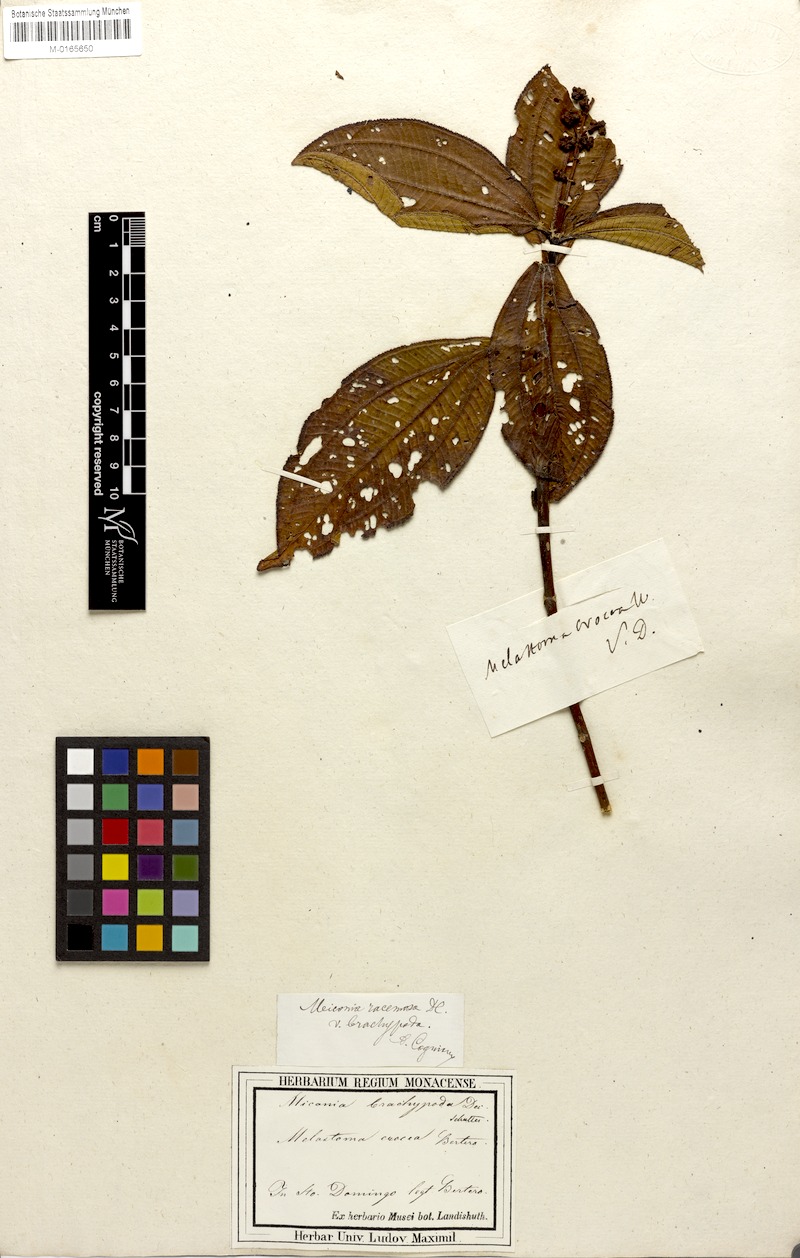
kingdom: Plantae
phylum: Tracheophyta
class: Magnoliopsida
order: Myrtales
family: Melastomataceae
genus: Miconia
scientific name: Miconia racemosa
